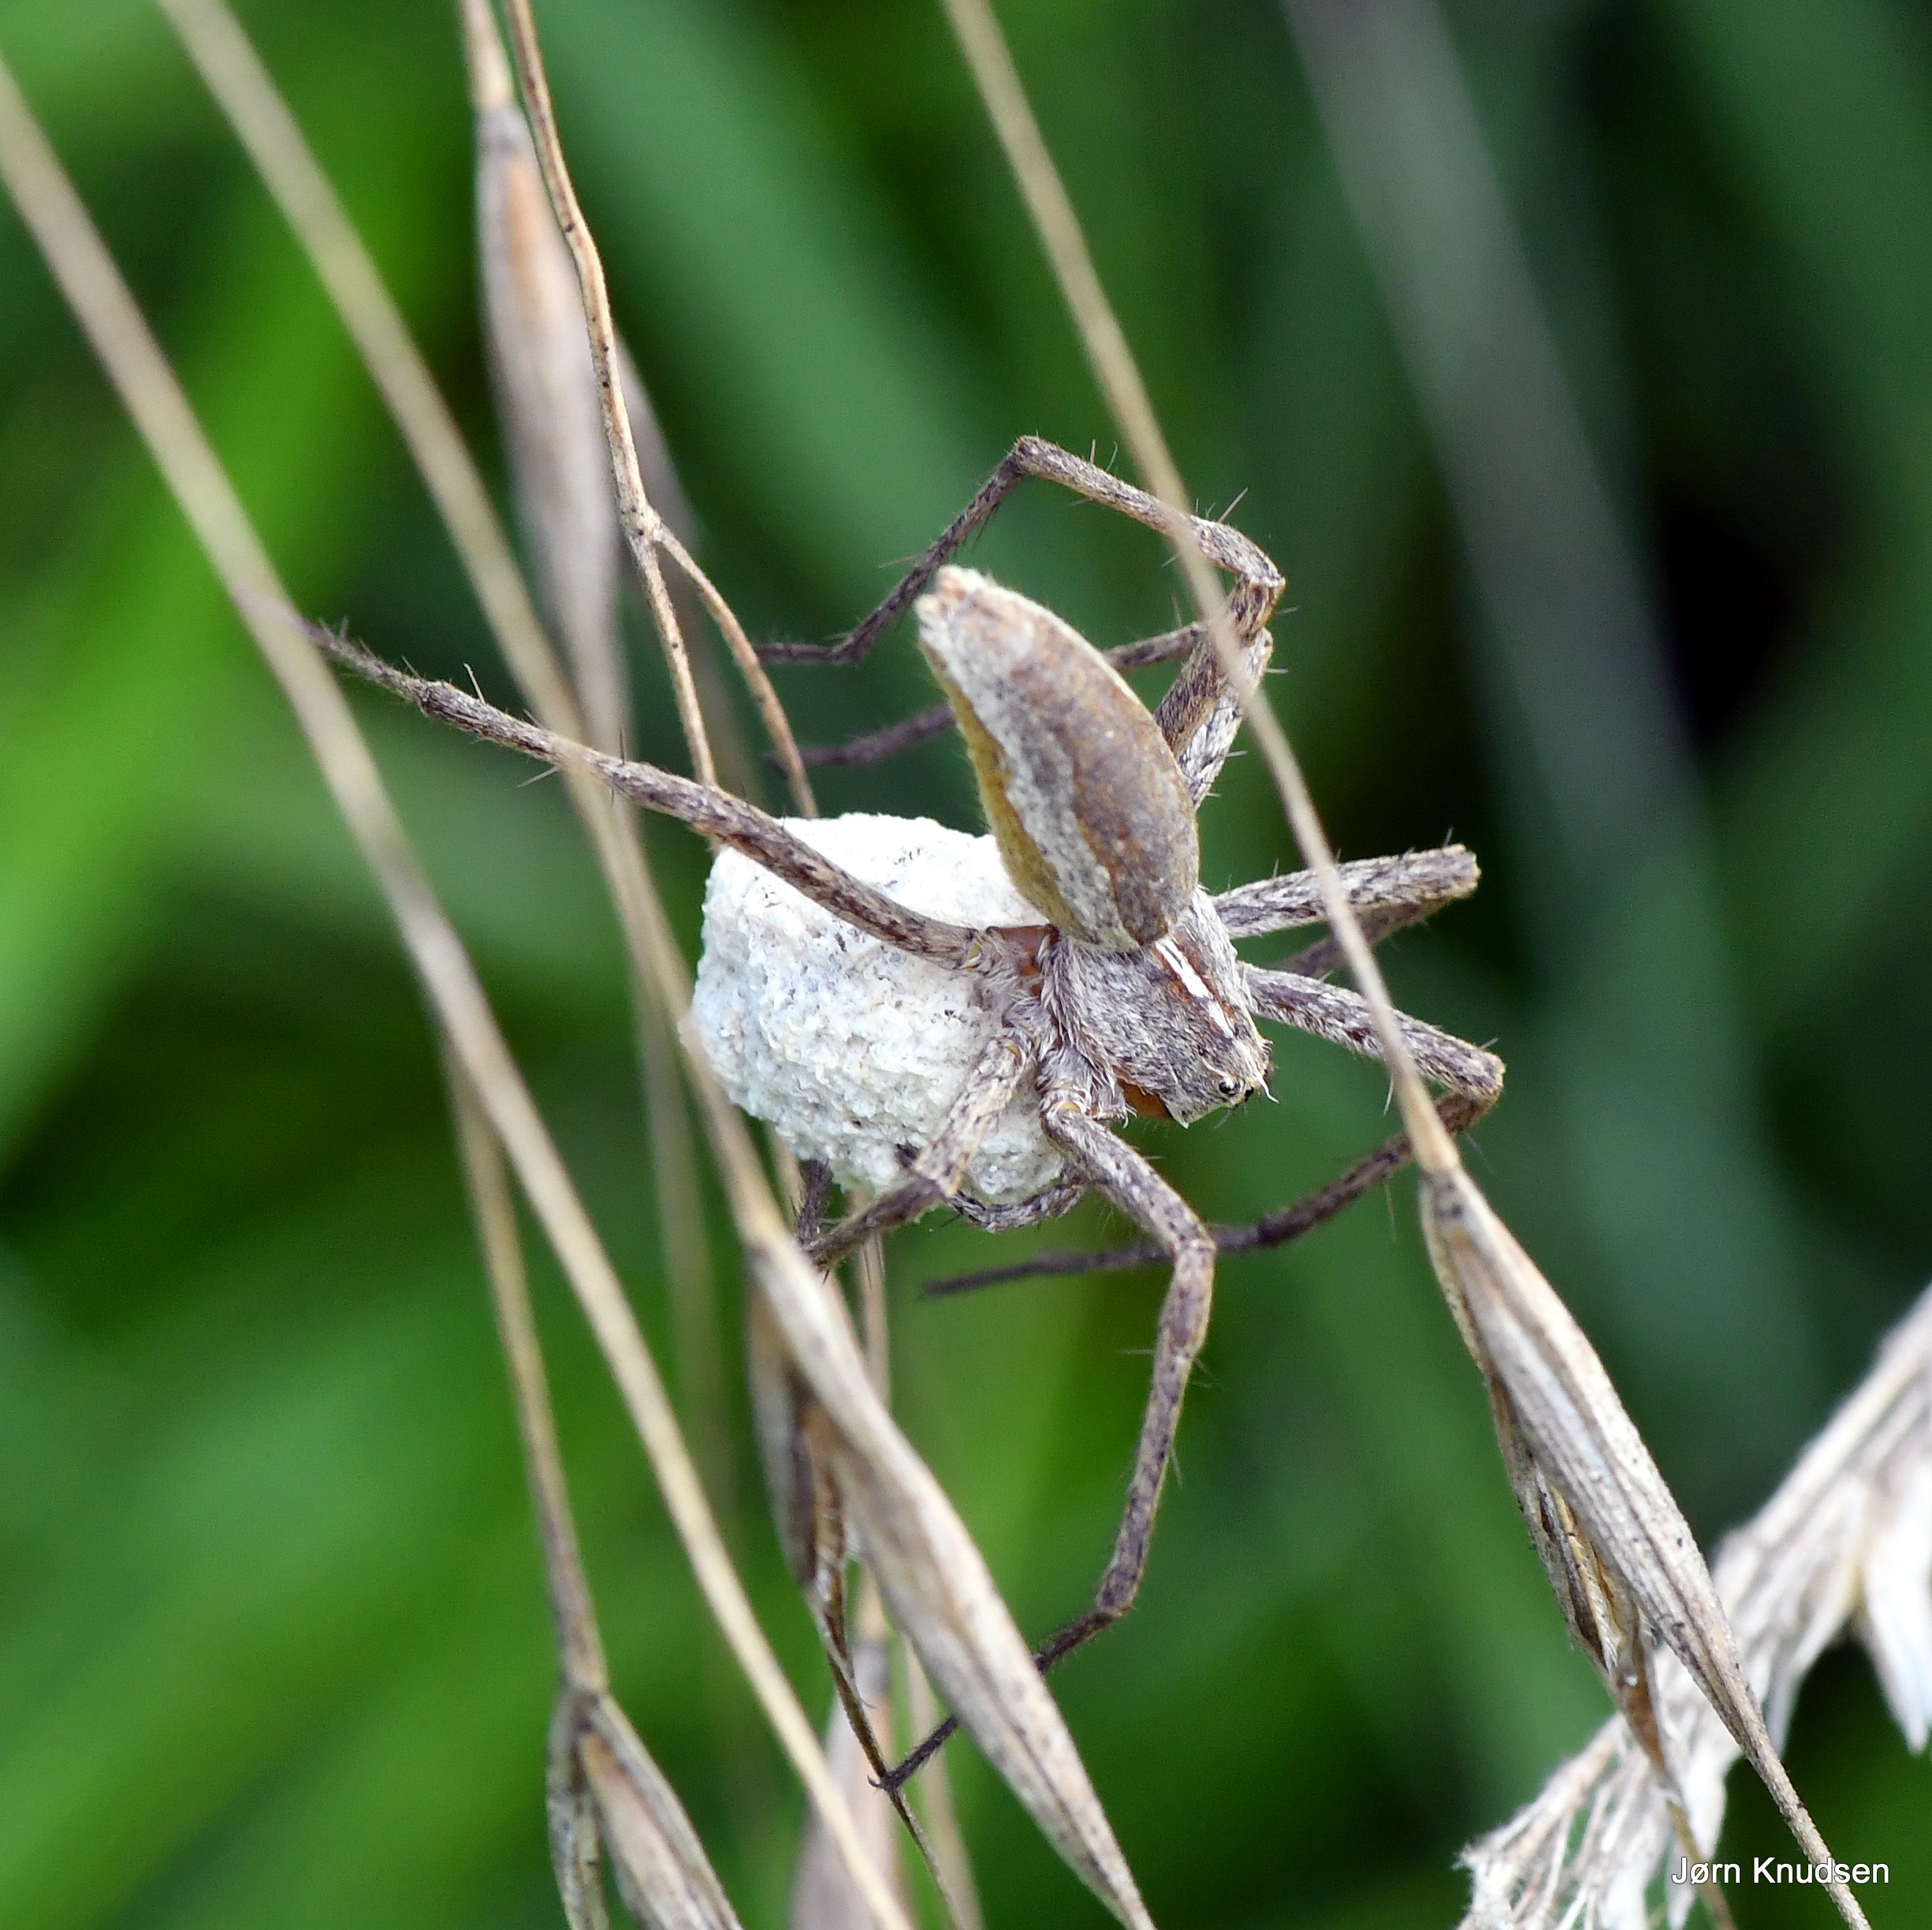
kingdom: Animalia
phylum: Arthropoda
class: Arachnida
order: Araneae
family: Pisauridae
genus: Pisaura
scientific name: Pisaura mirabilis
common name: Almindelig rovedderkop
